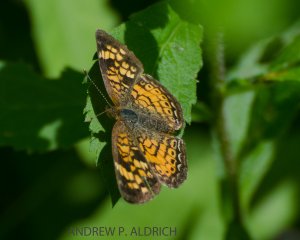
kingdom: Animalia
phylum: Arthropoda
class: Insecta
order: Lepidoptera
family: Nymphalidae
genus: Phyciodes
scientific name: Phyciodes
